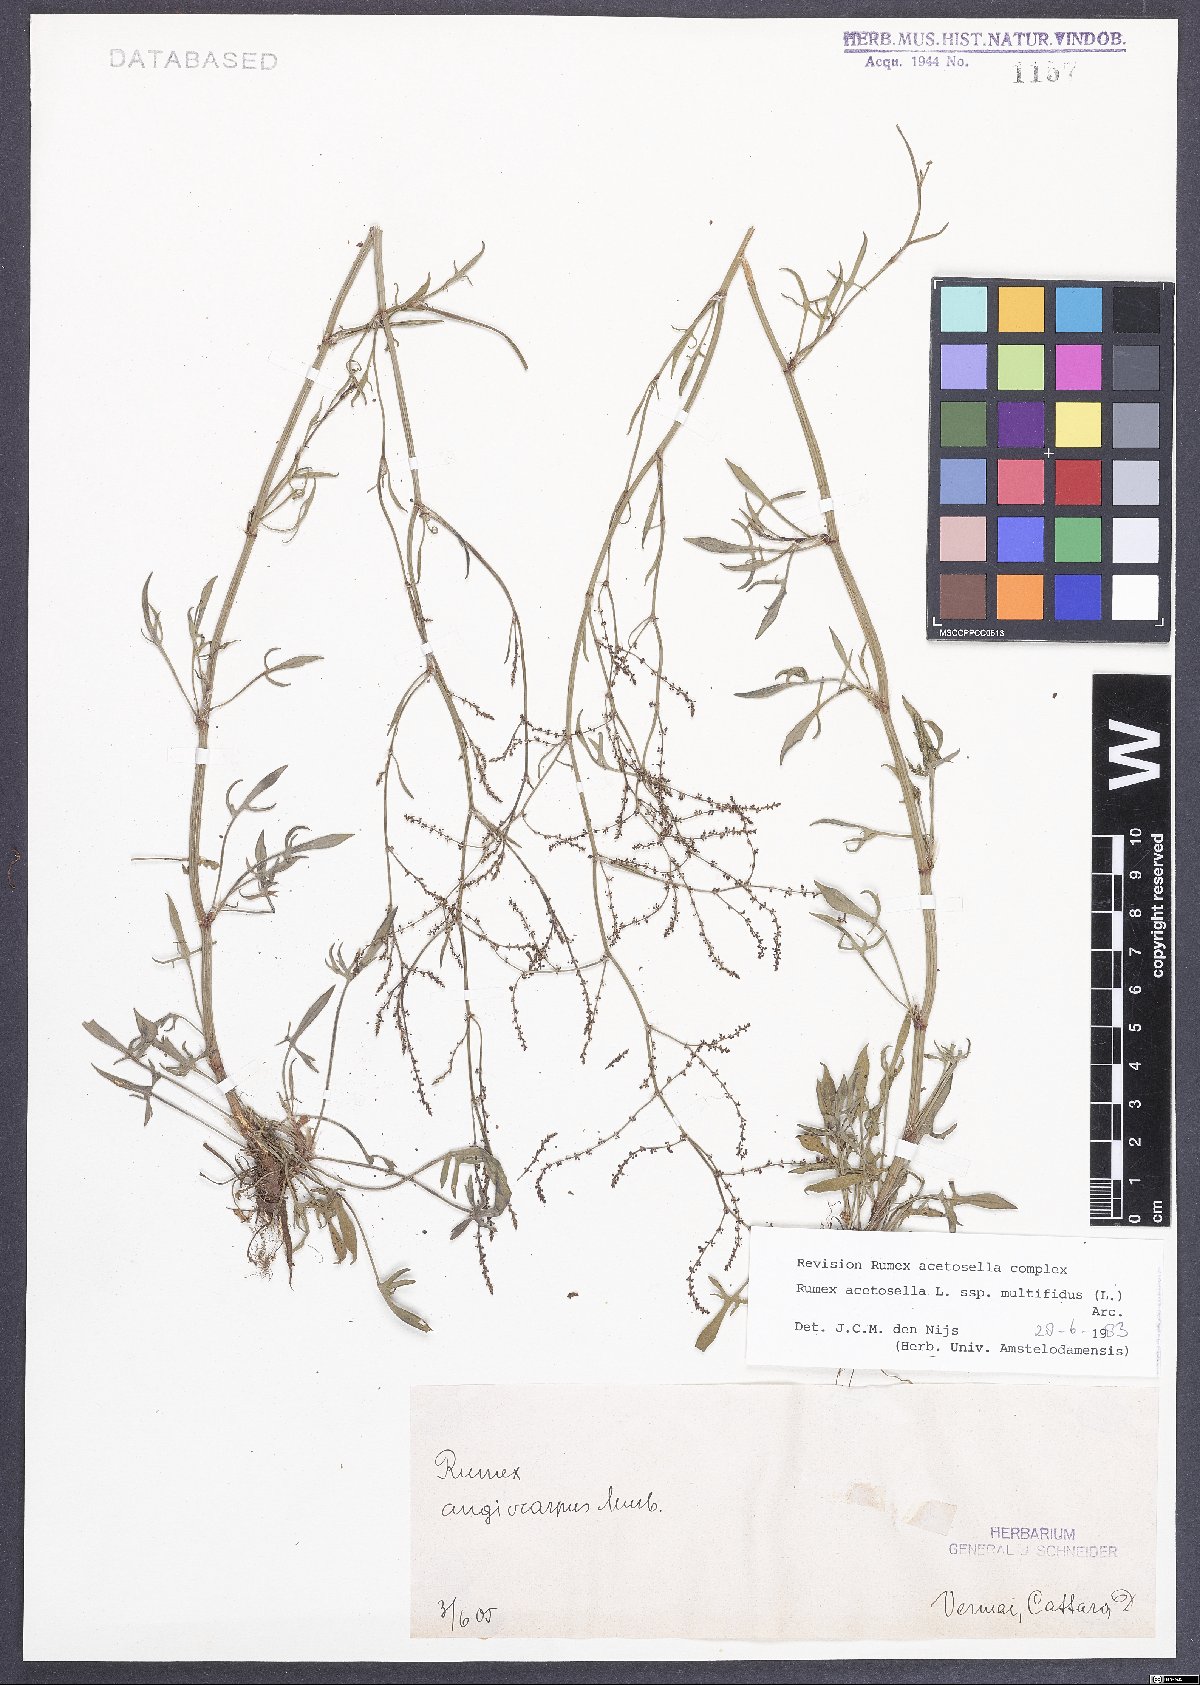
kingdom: Plantae
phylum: Tracheophyta
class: Magnoliopsida
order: Caryophyllales
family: Polygonaceae
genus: Rumex
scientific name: Rumex acetosella
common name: Common sheep sorrel
